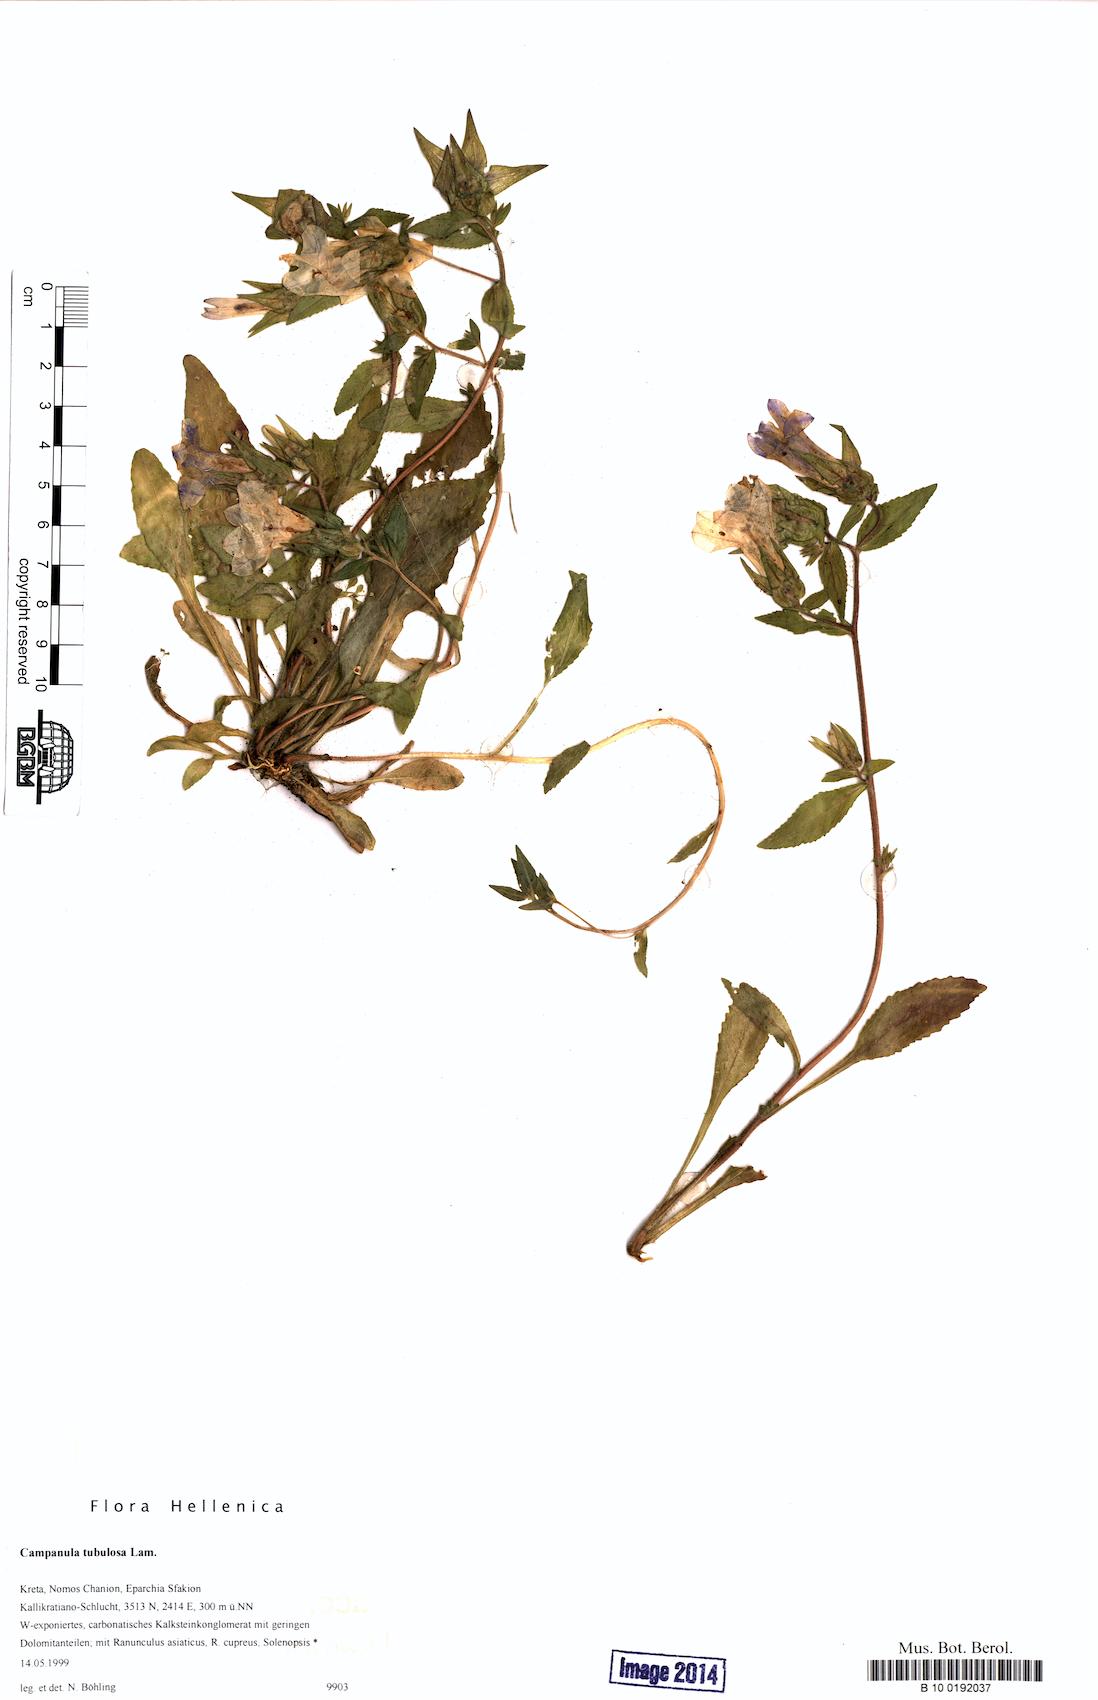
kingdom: Plantae
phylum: Tracheophyta
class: Magnoliopsida
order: Asterales
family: Campanulaceae
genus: Campanula
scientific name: Campanula tubulosa
